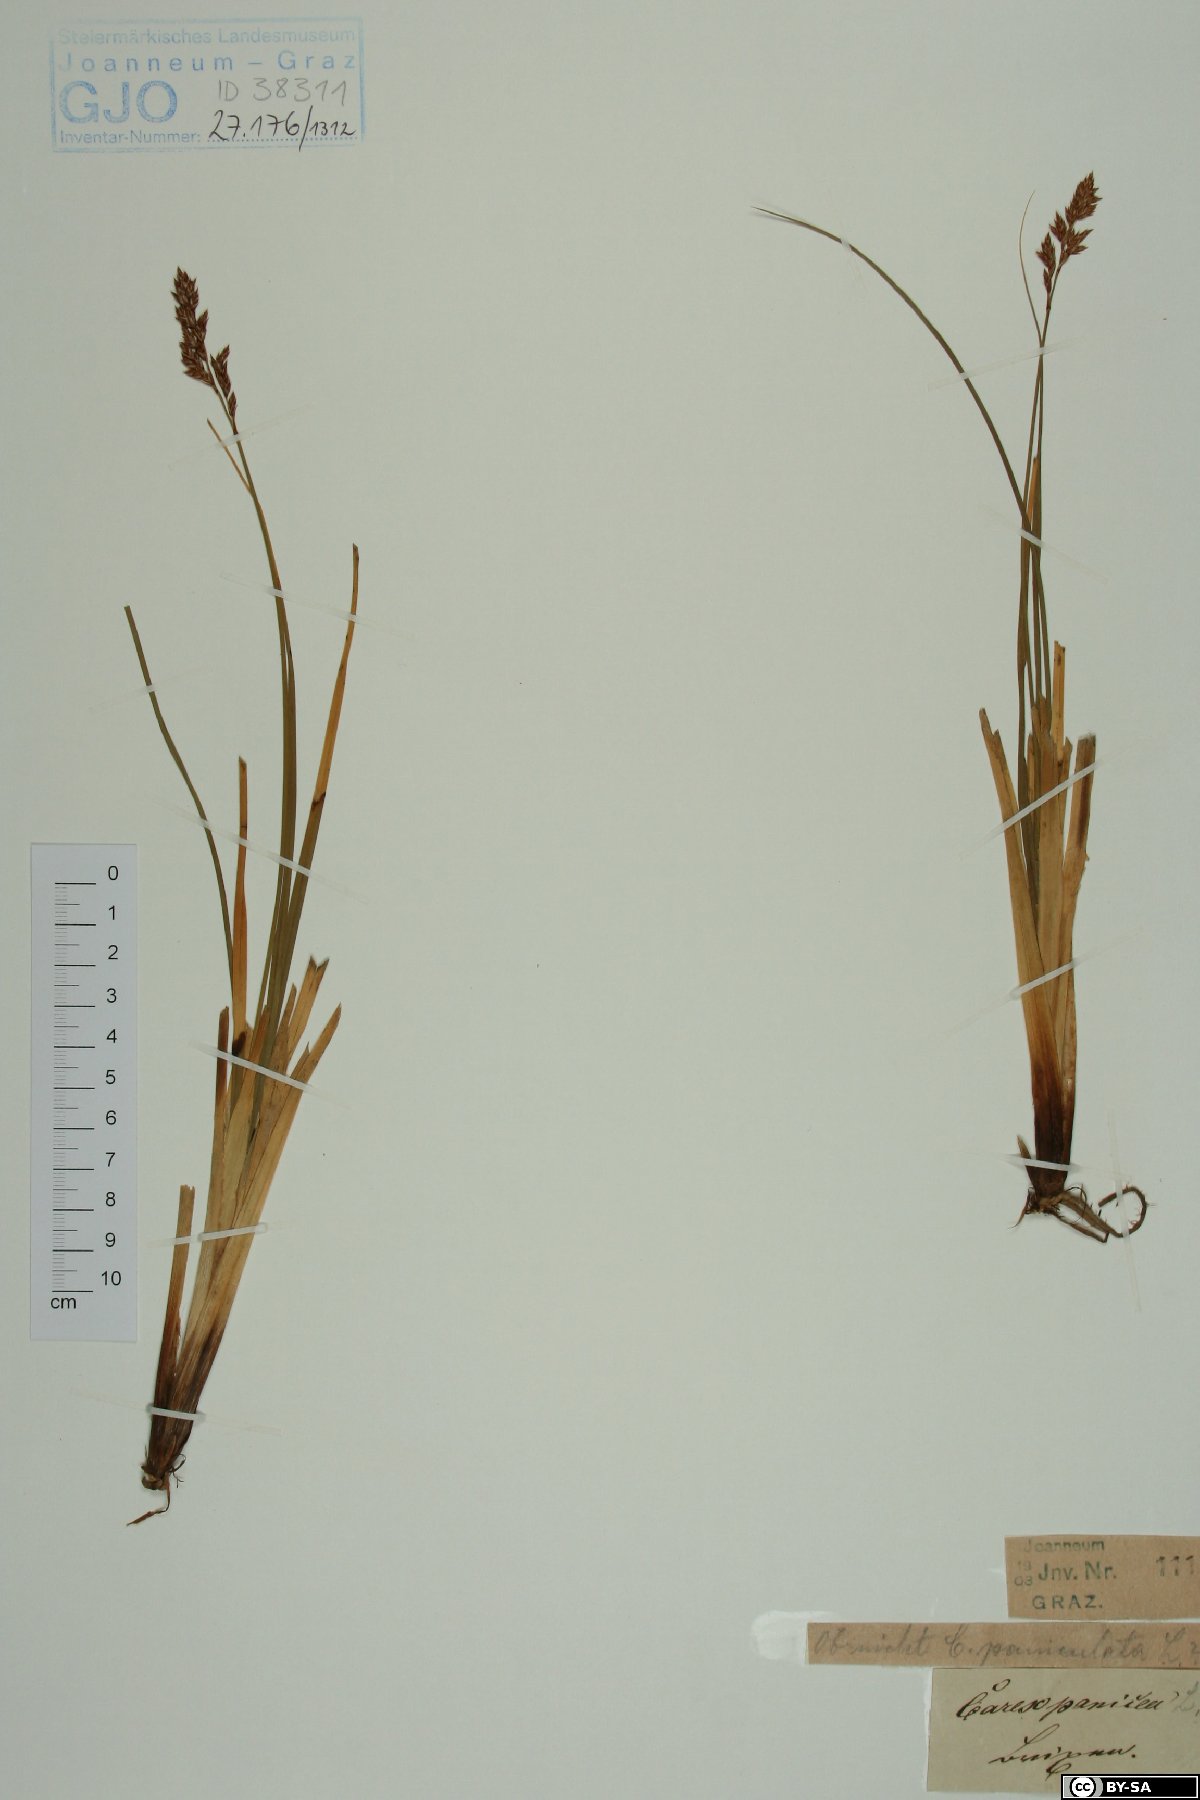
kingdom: Plantae
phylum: Tracheophyta
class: Liliopsida
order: Poales
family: Cyperaceae
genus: Carex
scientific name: Carex panicea
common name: Carnation sedge
